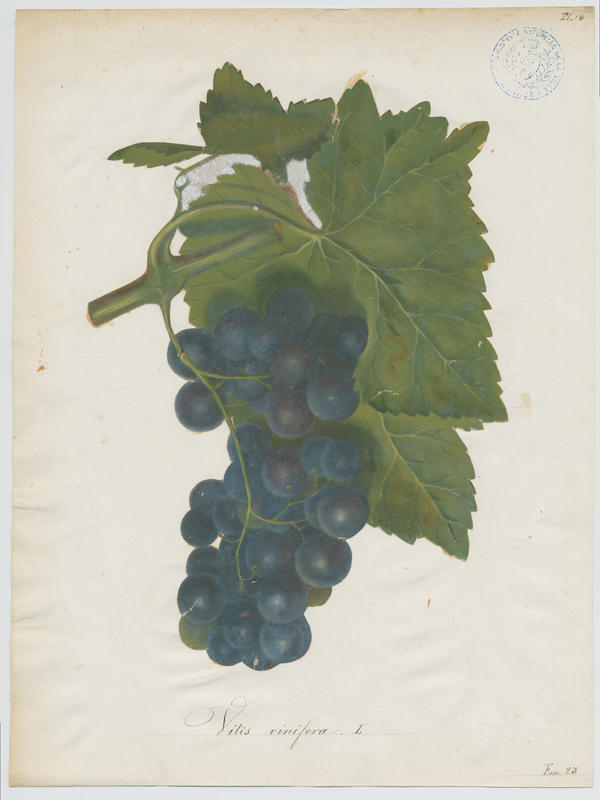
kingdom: Plantae
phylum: Tracheophyta
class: Magnoliopsida
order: Vitales
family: Vitaceae
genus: Vitis
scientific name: Vitis vinifera
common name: Grape-vine
